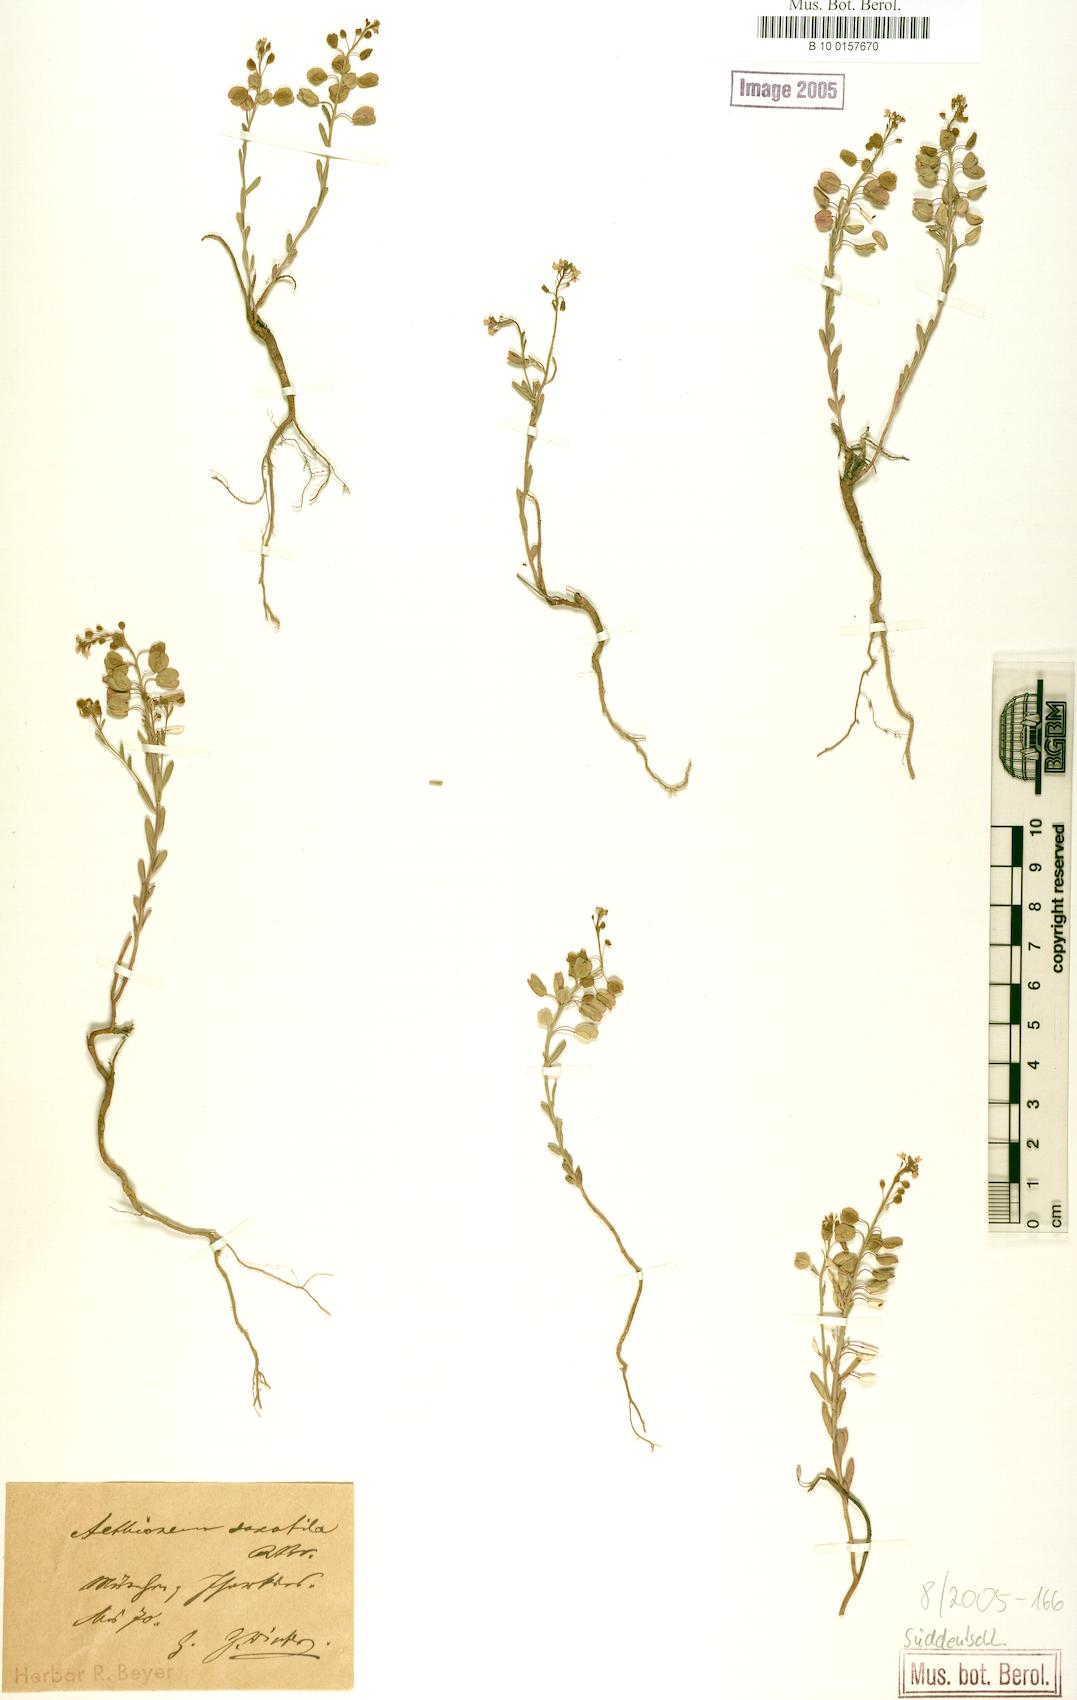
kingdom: Plantae
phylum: Tracheophyta
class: Magnoliopsida
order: Brassicales
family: Brassicaceae
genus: Aethionema
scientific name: Aethionema saxatile
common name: Burnt candytuft
